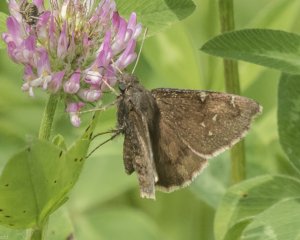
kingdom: Animalia
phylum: Arthropoda
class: Insecta
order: Lepidoptera
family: Hesperiidae
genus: Autochton
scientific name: Autochton
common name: Northern Cloudywing
